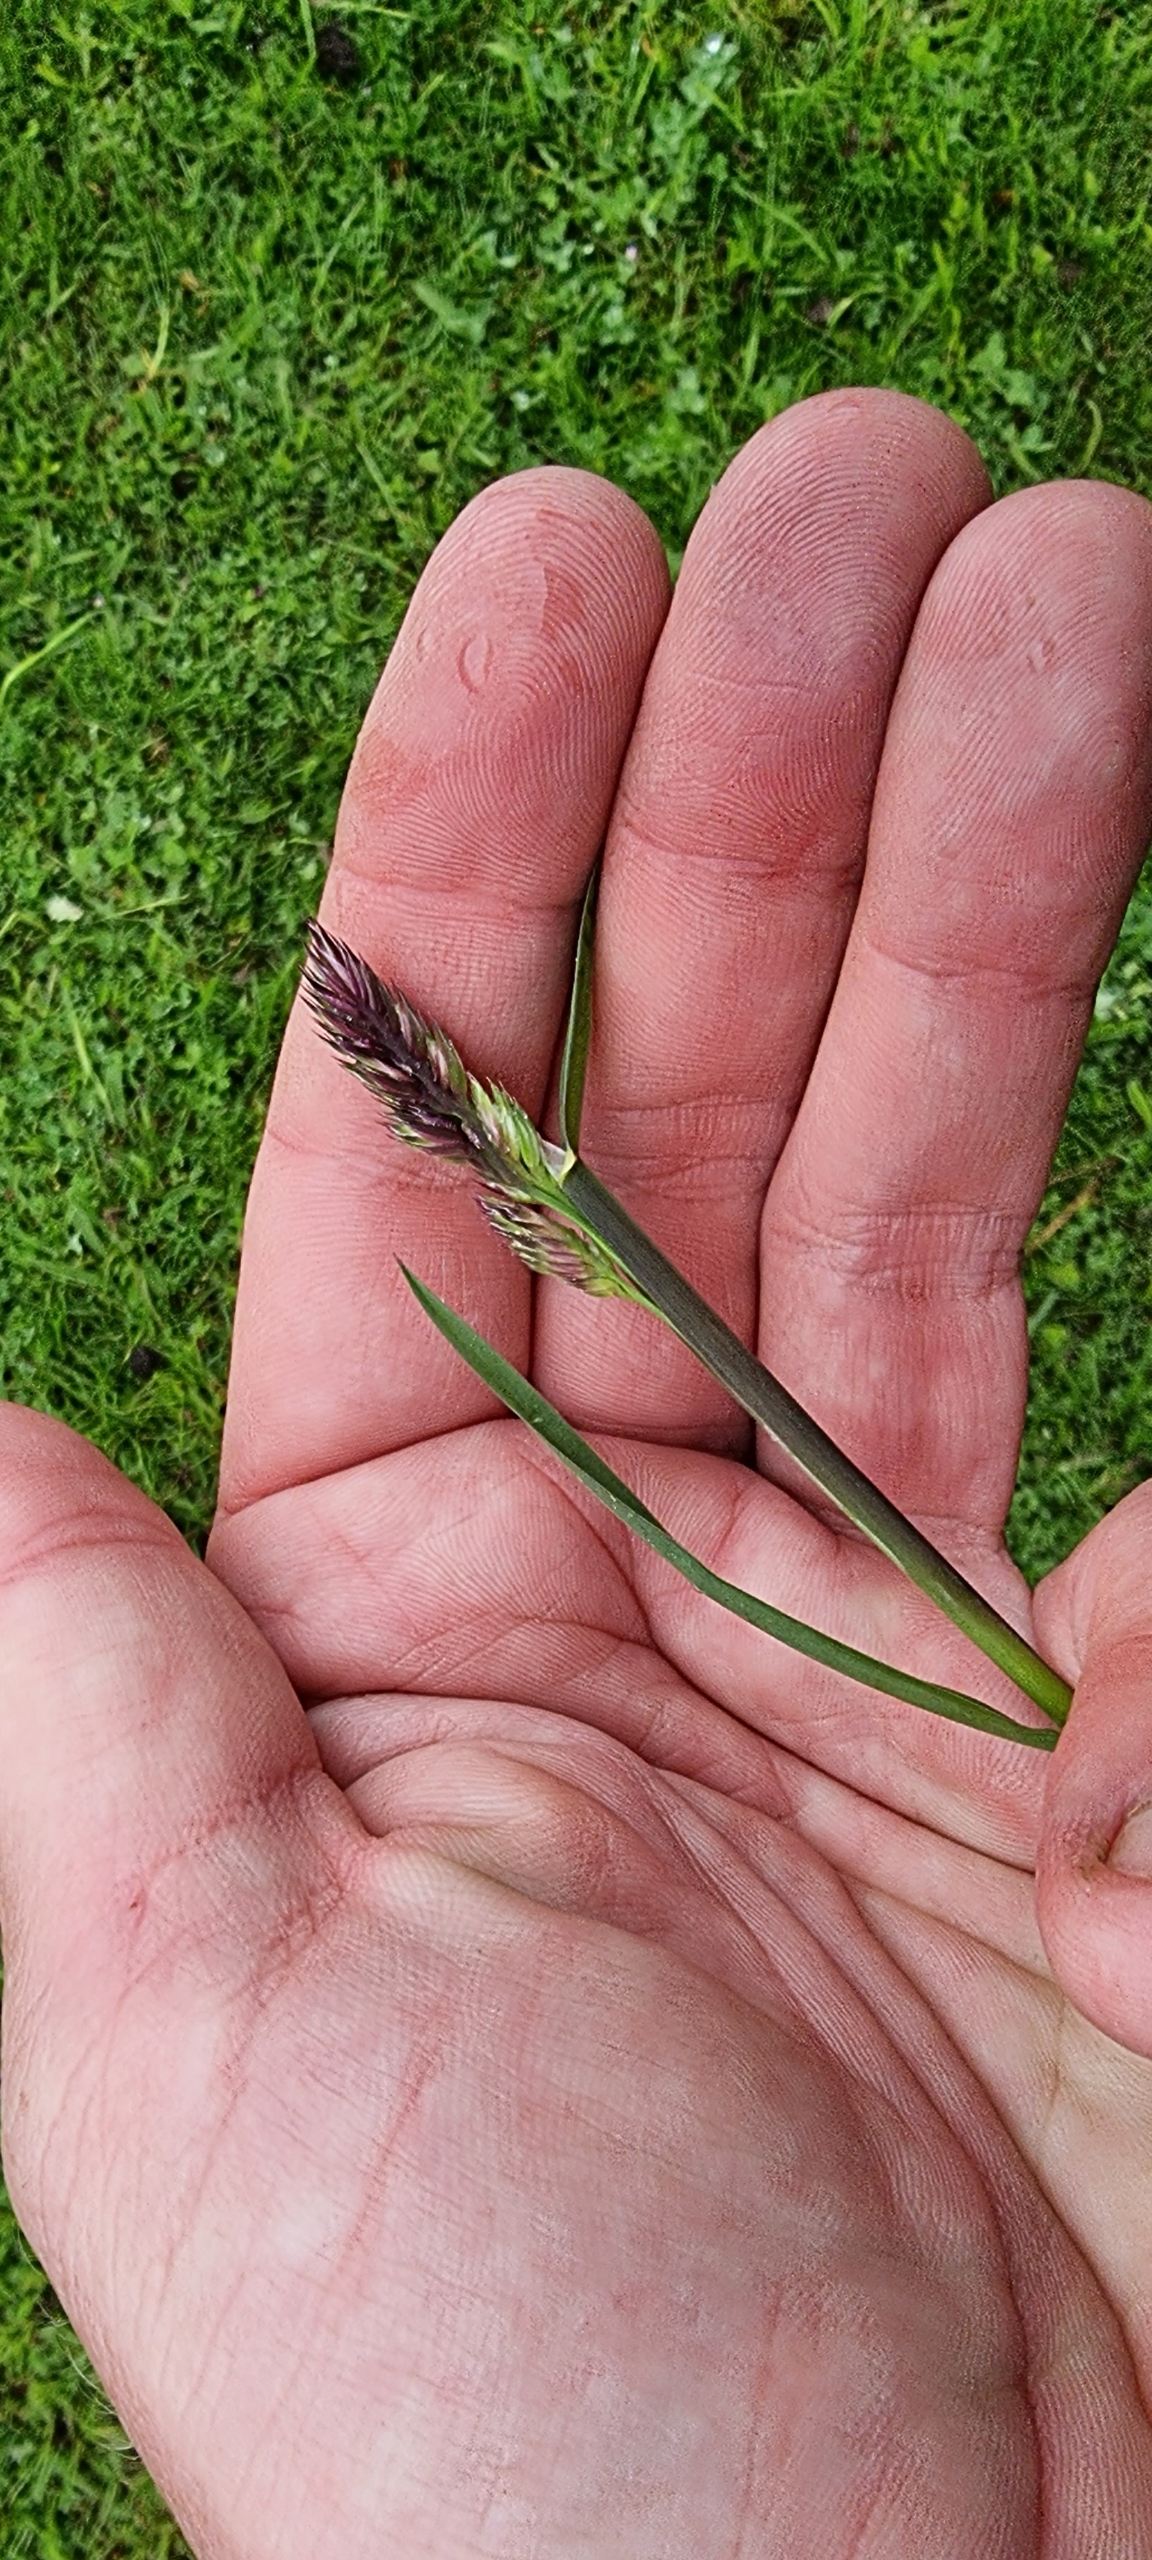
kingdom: Plantae
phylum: Tracheophyta
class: Liliopsida
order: Poales
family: Poaceae
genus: Dactylis
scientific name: Dactylis glomerata
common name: Almindelig hundegræs
